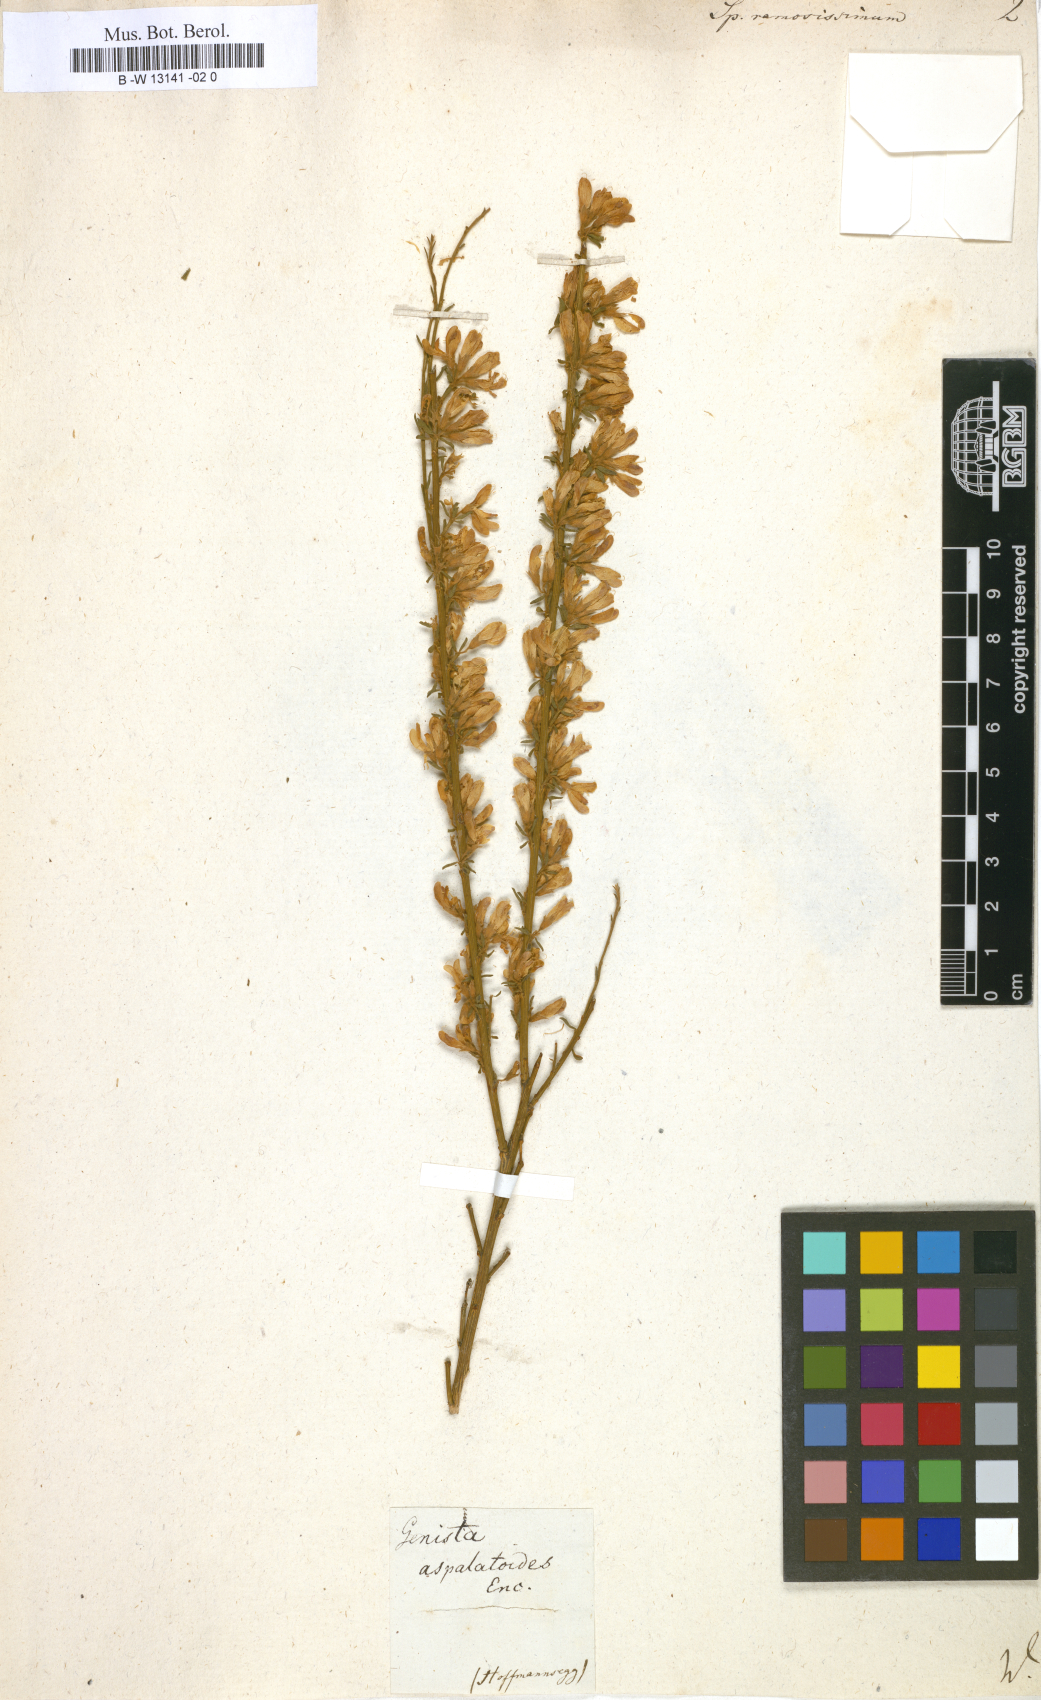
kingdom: Plantae
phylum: Tracheophyta
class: Magnoliopsida
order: Fabales
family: Fabaceae
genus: Genista
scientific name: Genista ramosissima
